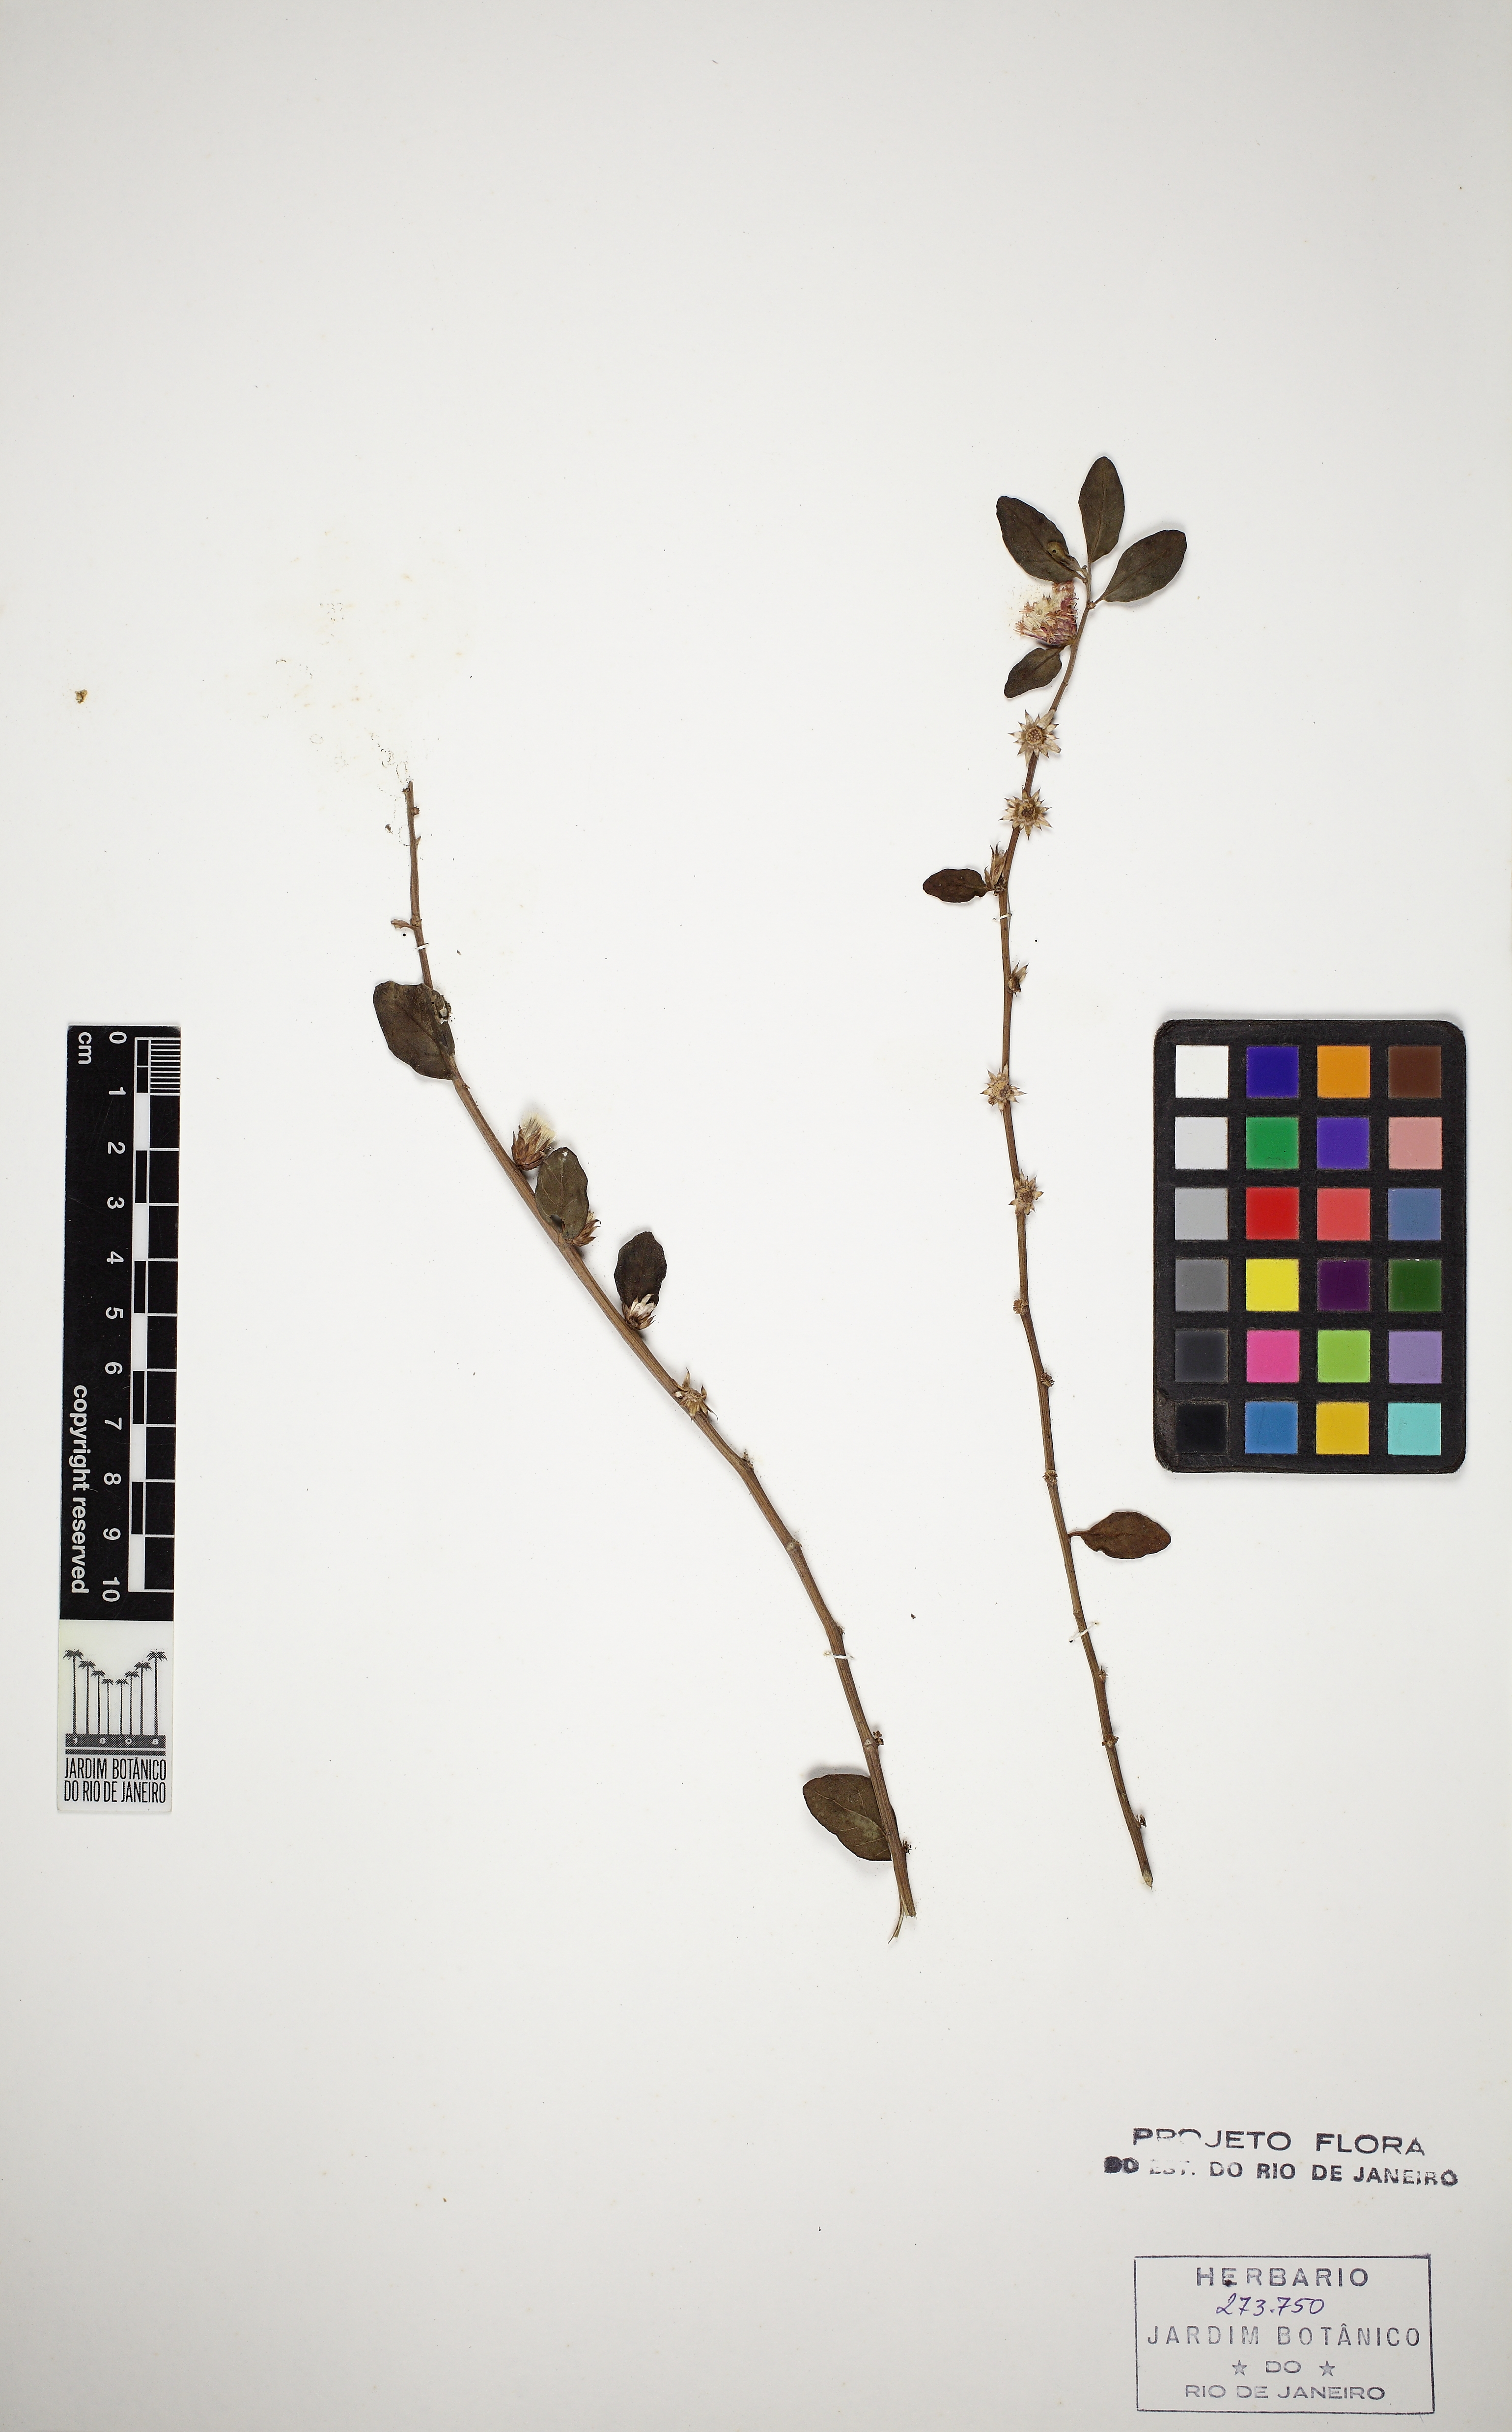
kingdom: Plantae
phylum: Tracheophyta
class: Magnoliopsida
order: Asterales
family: Asteraceae
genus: Lepidaploa
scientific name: Lepidaploa obtusifolia
